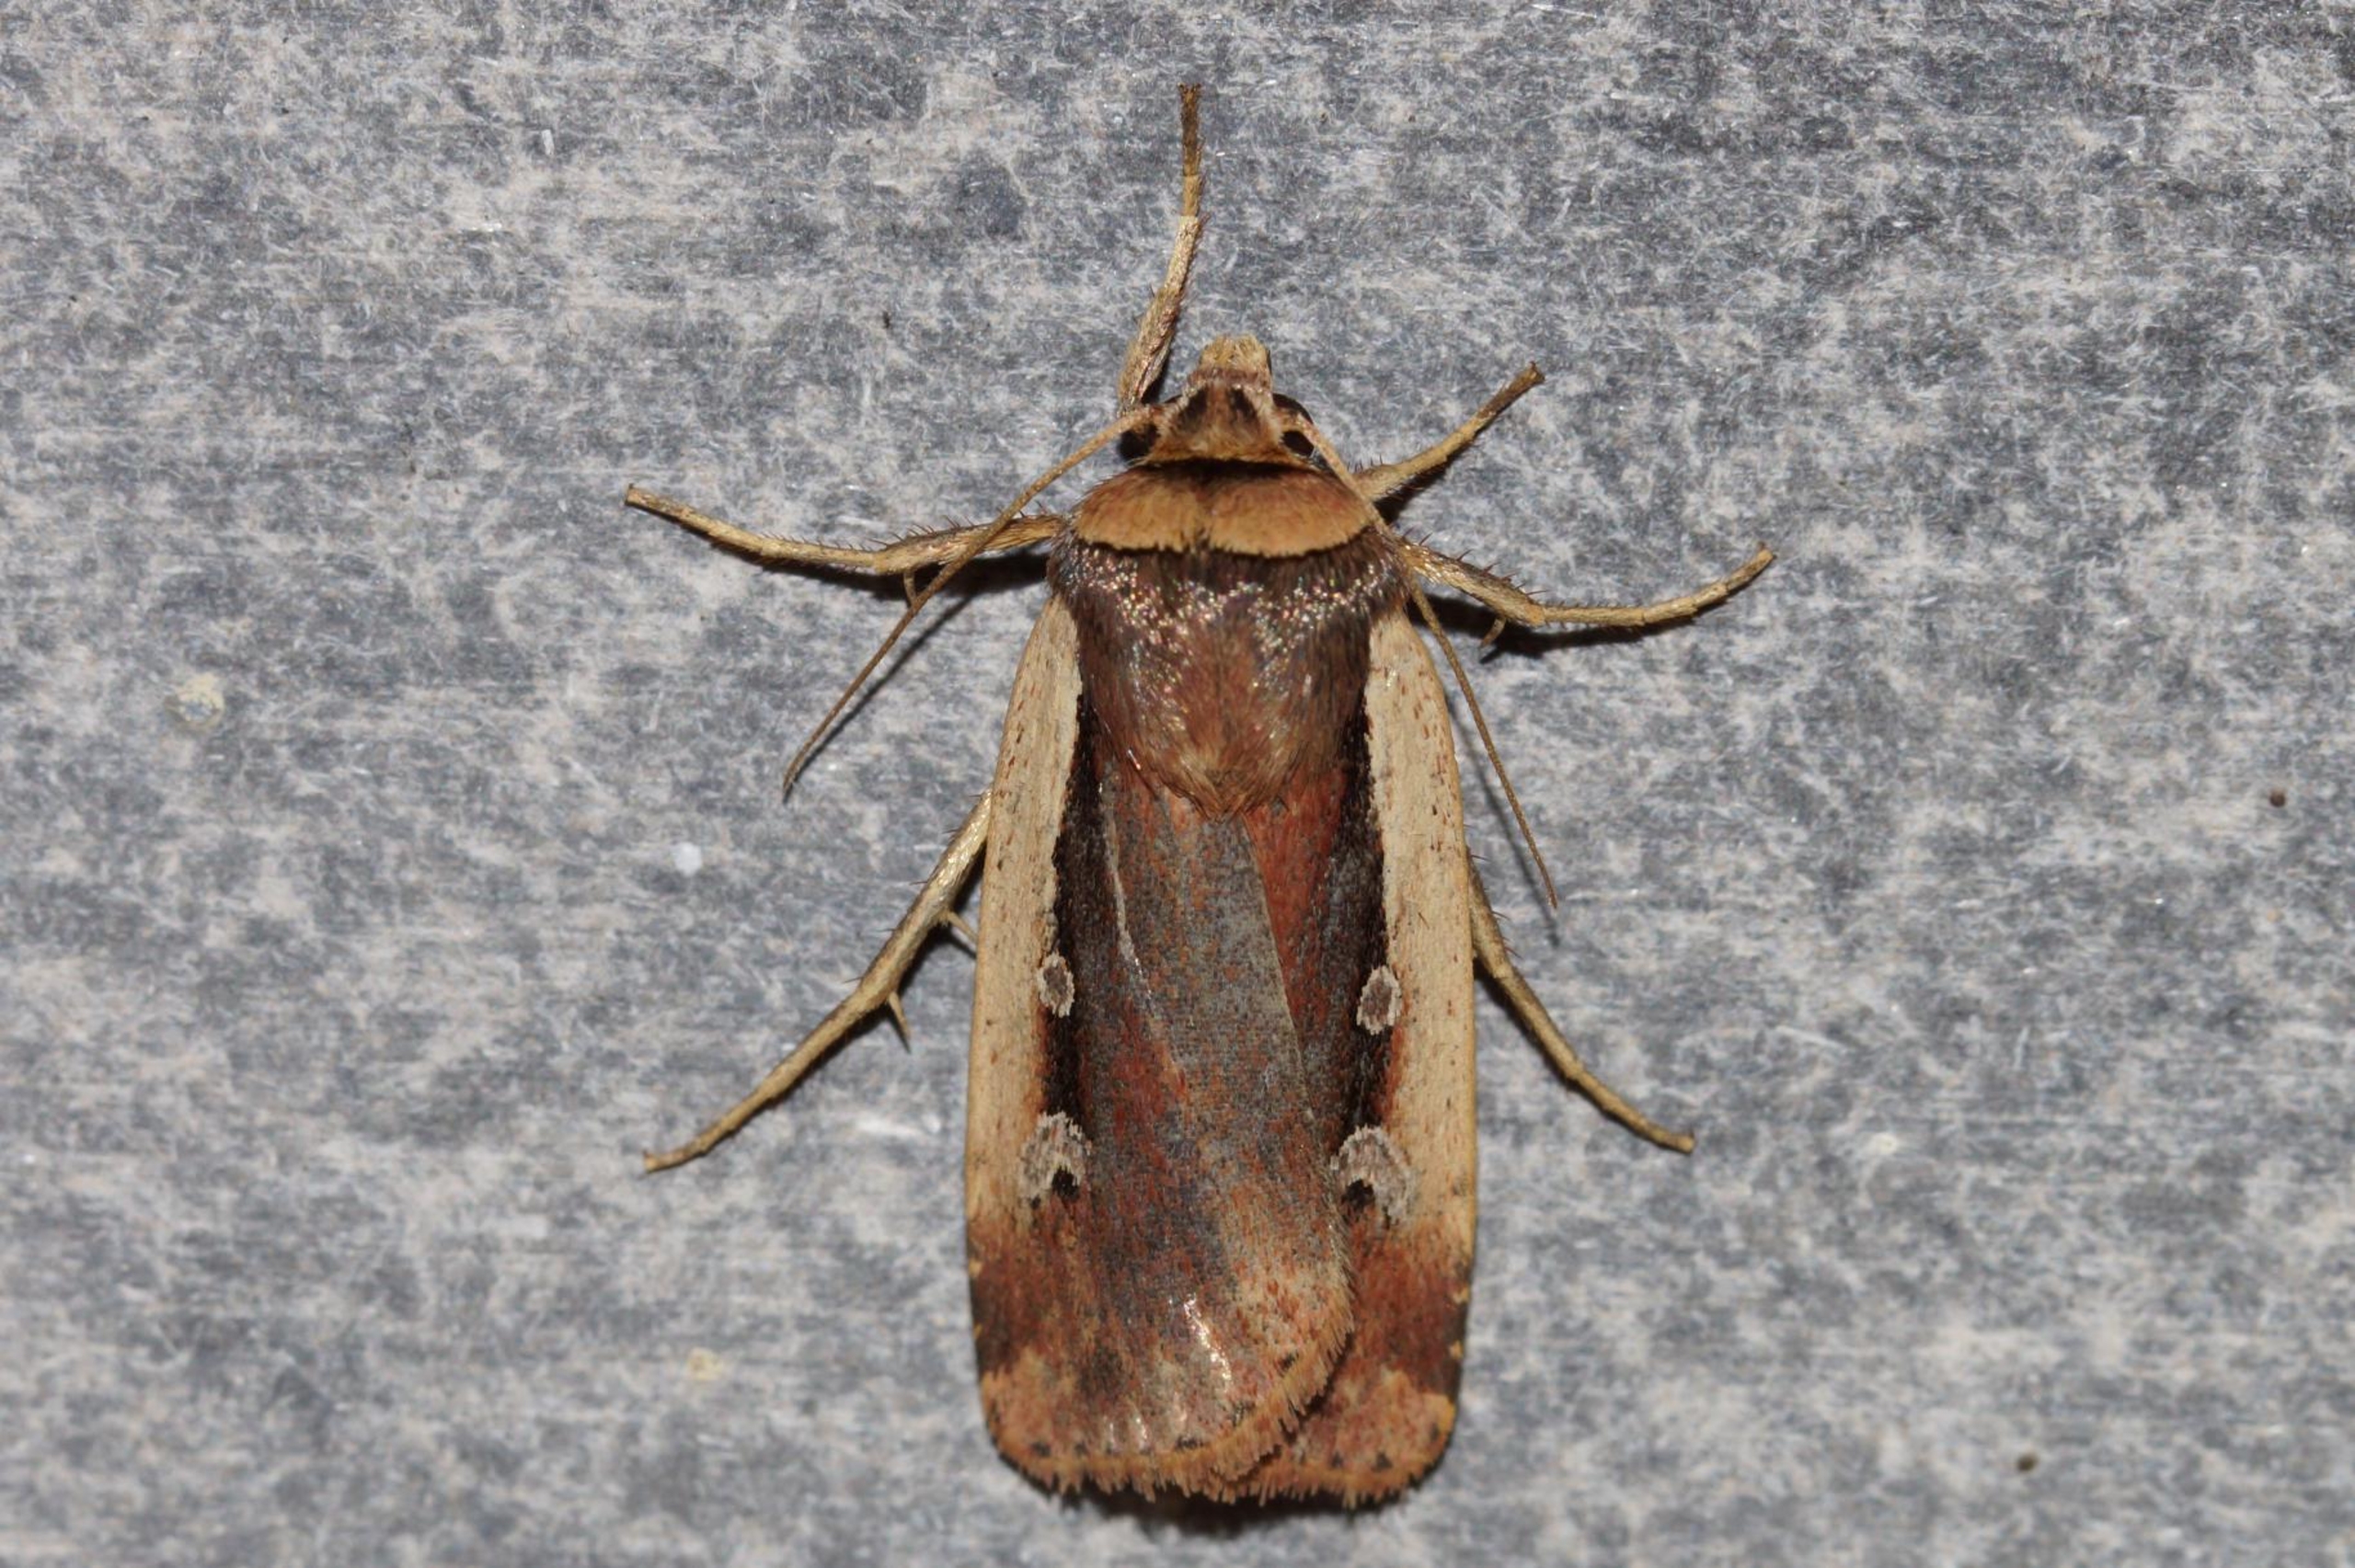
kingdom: Animalia
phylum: Arthropoda
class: Insecta
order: Lepidoptera
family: Noctuidae
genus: Ochropleura
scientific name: Ochropleura plecta
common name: Hvidrandet jordugle
